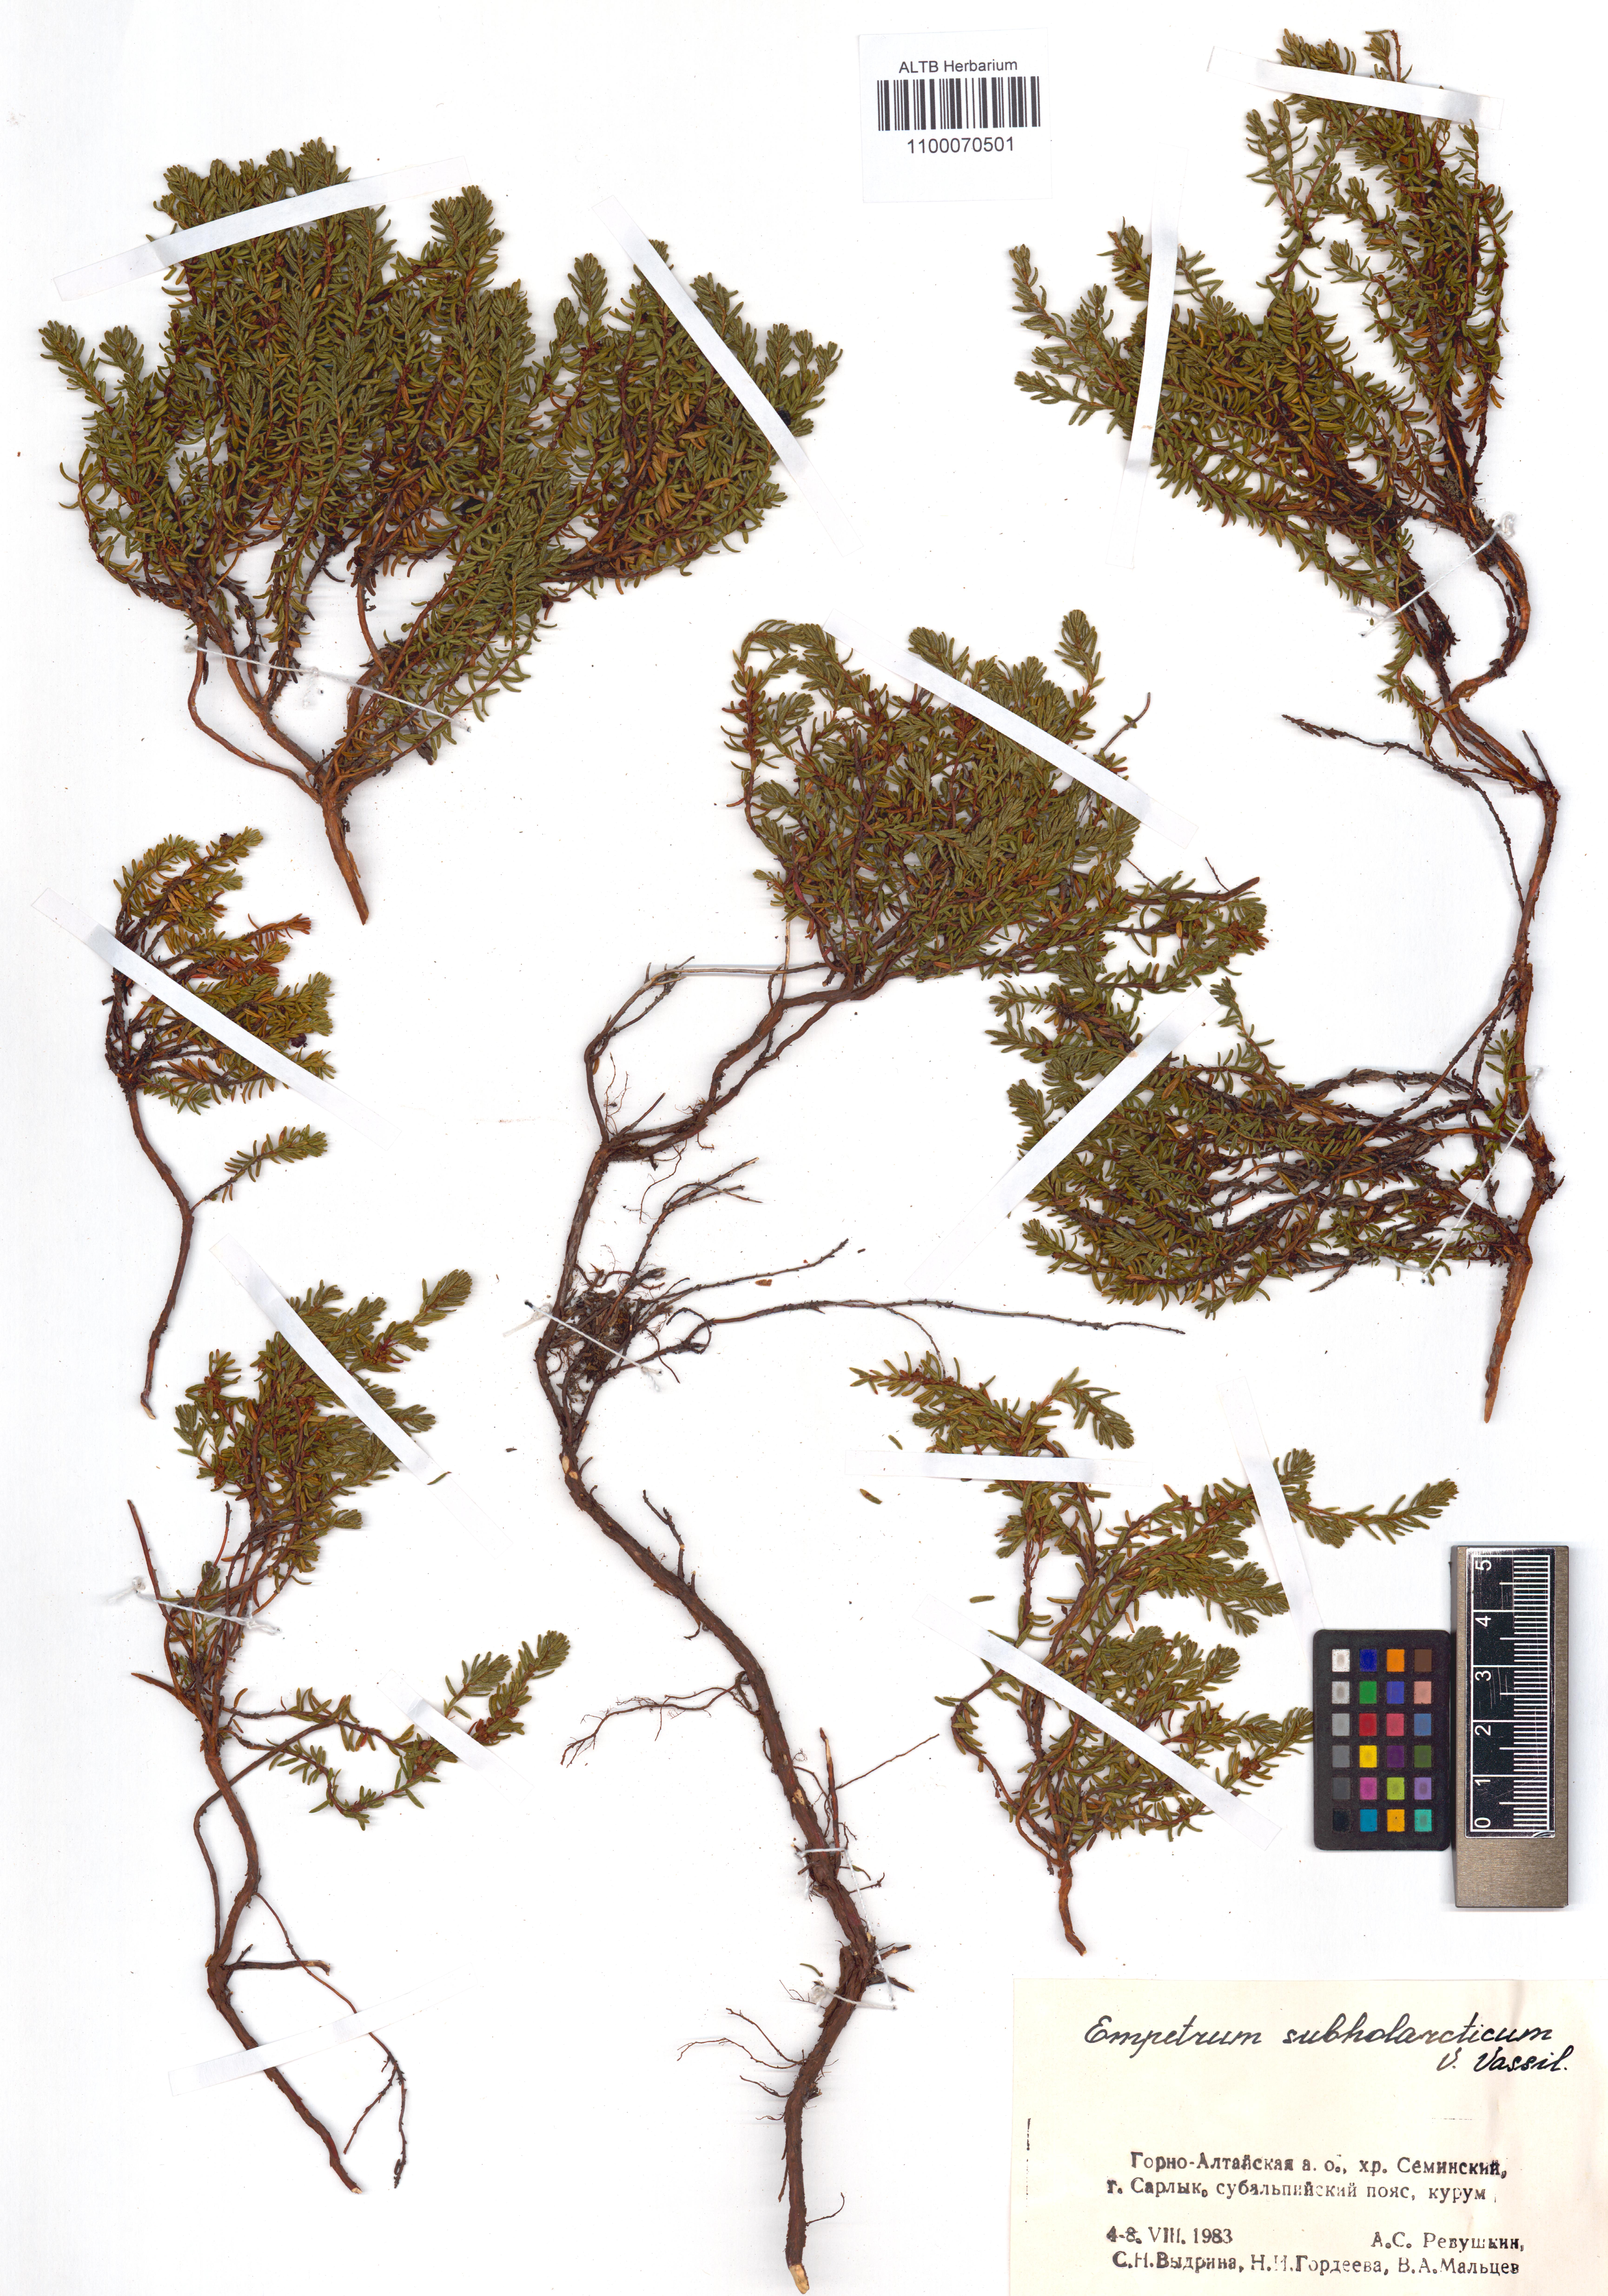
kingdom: Plantae
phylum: Tracheophyta
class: Magnoliopsida
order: Ericales
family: Ericaceae
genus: Empetrum
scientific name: Empetrum nigrum
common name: Black crowberry
